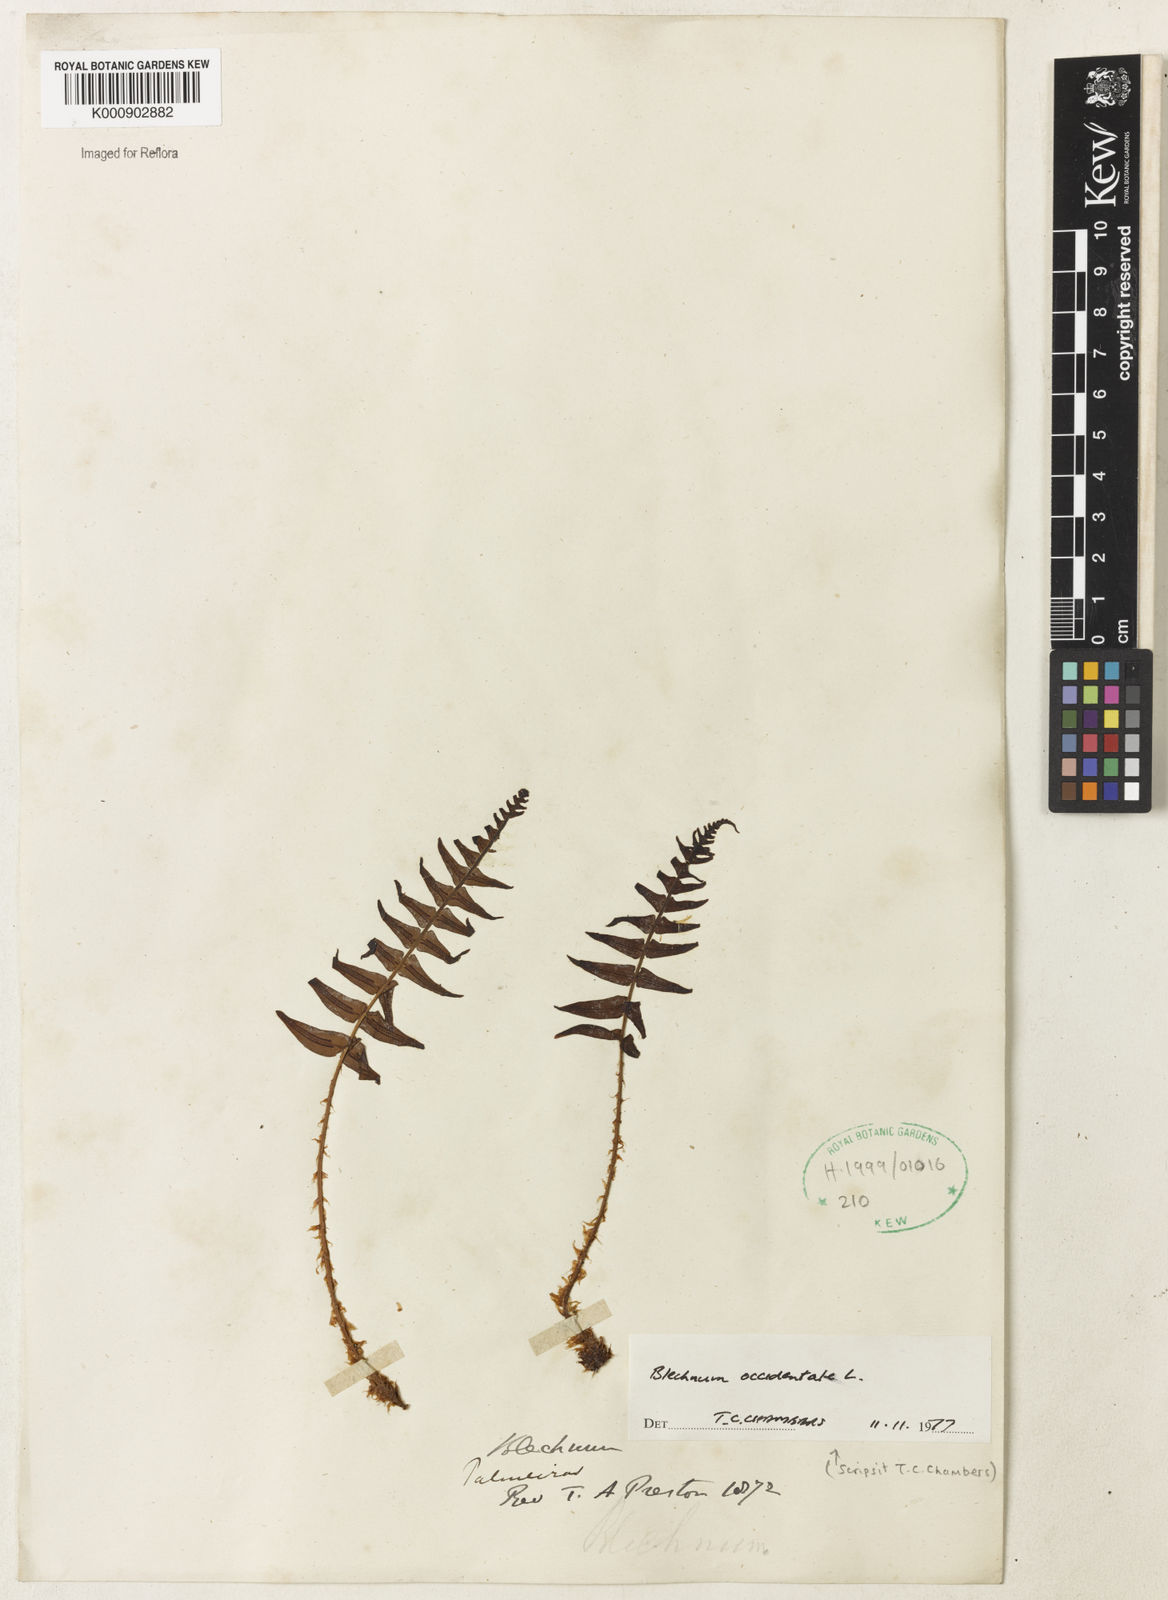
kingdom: Plantae
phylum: Tracheophyta
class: Polypodiopsida
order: Polypodiales
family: Blechnaceae
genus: Blechnum
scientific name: Blechnum occidentale
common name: Hammock fern
